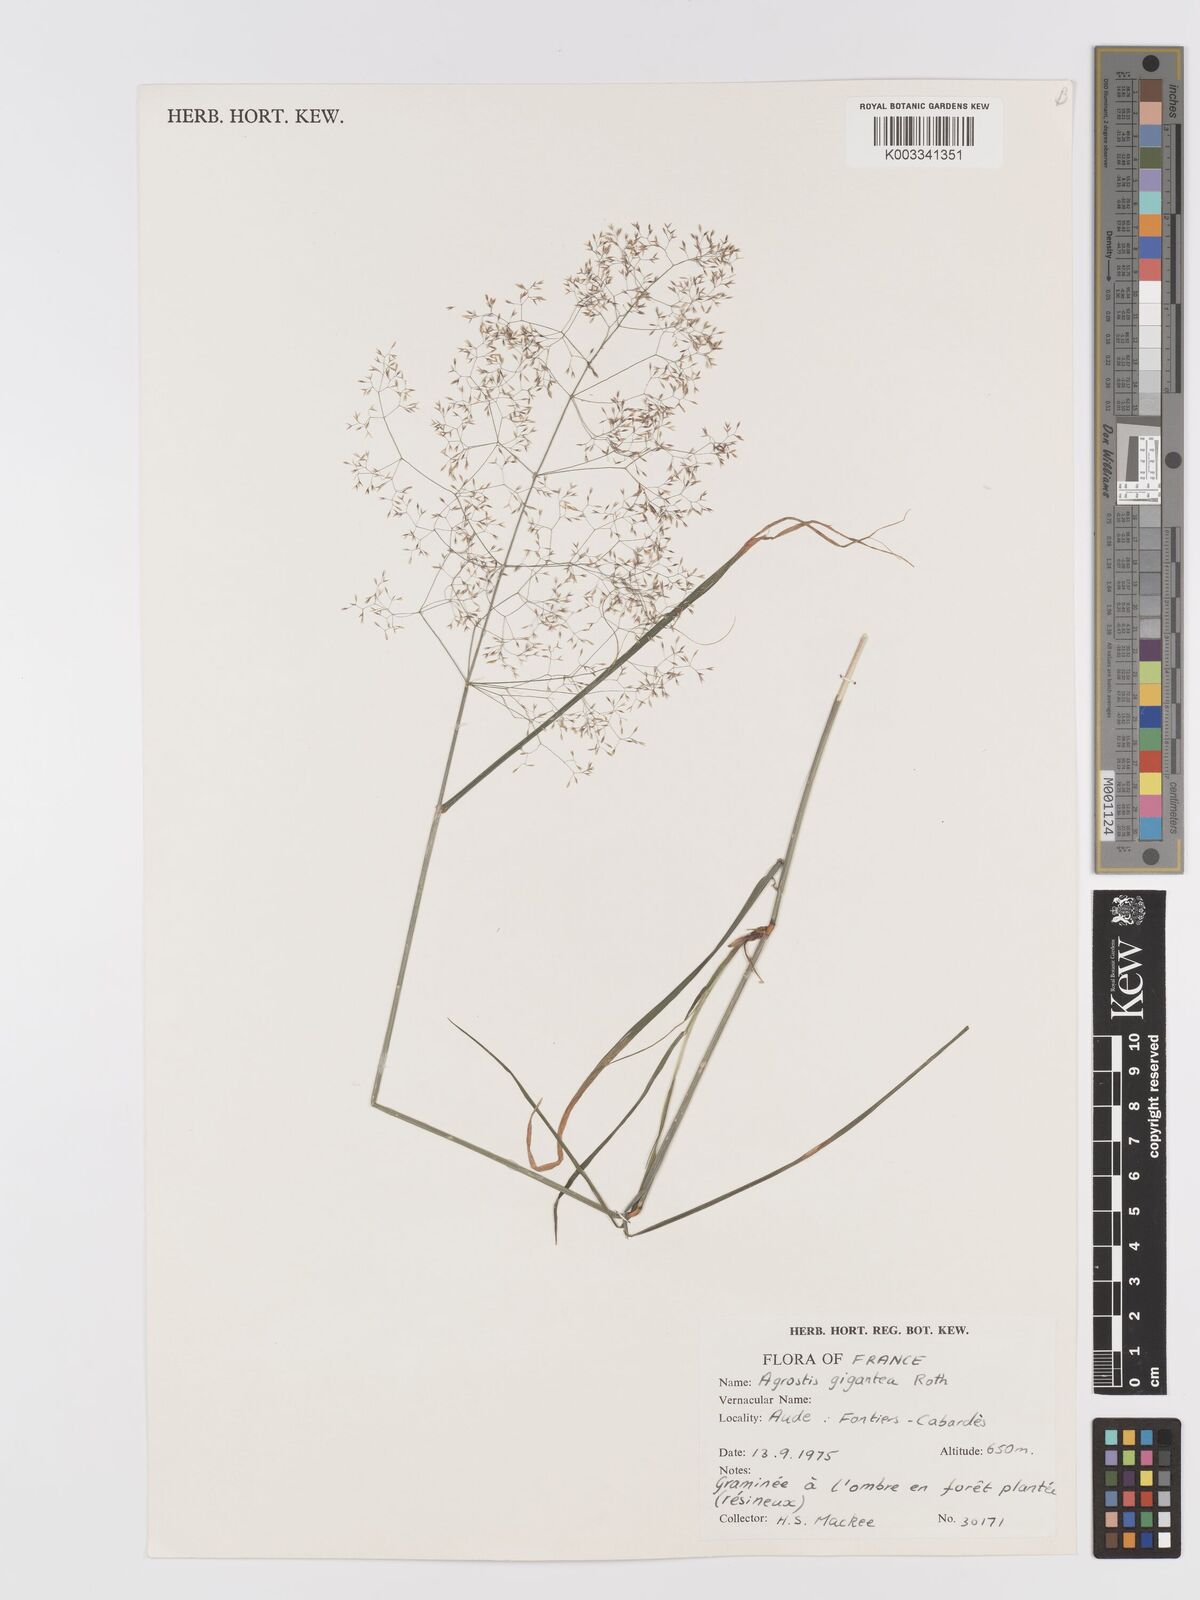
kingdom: Plantae
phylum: Tracheophyta
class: Liliopsida
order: Poales
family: Poaceae
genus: Agrostis
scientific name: Agrostis gigantea
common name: Black bent
